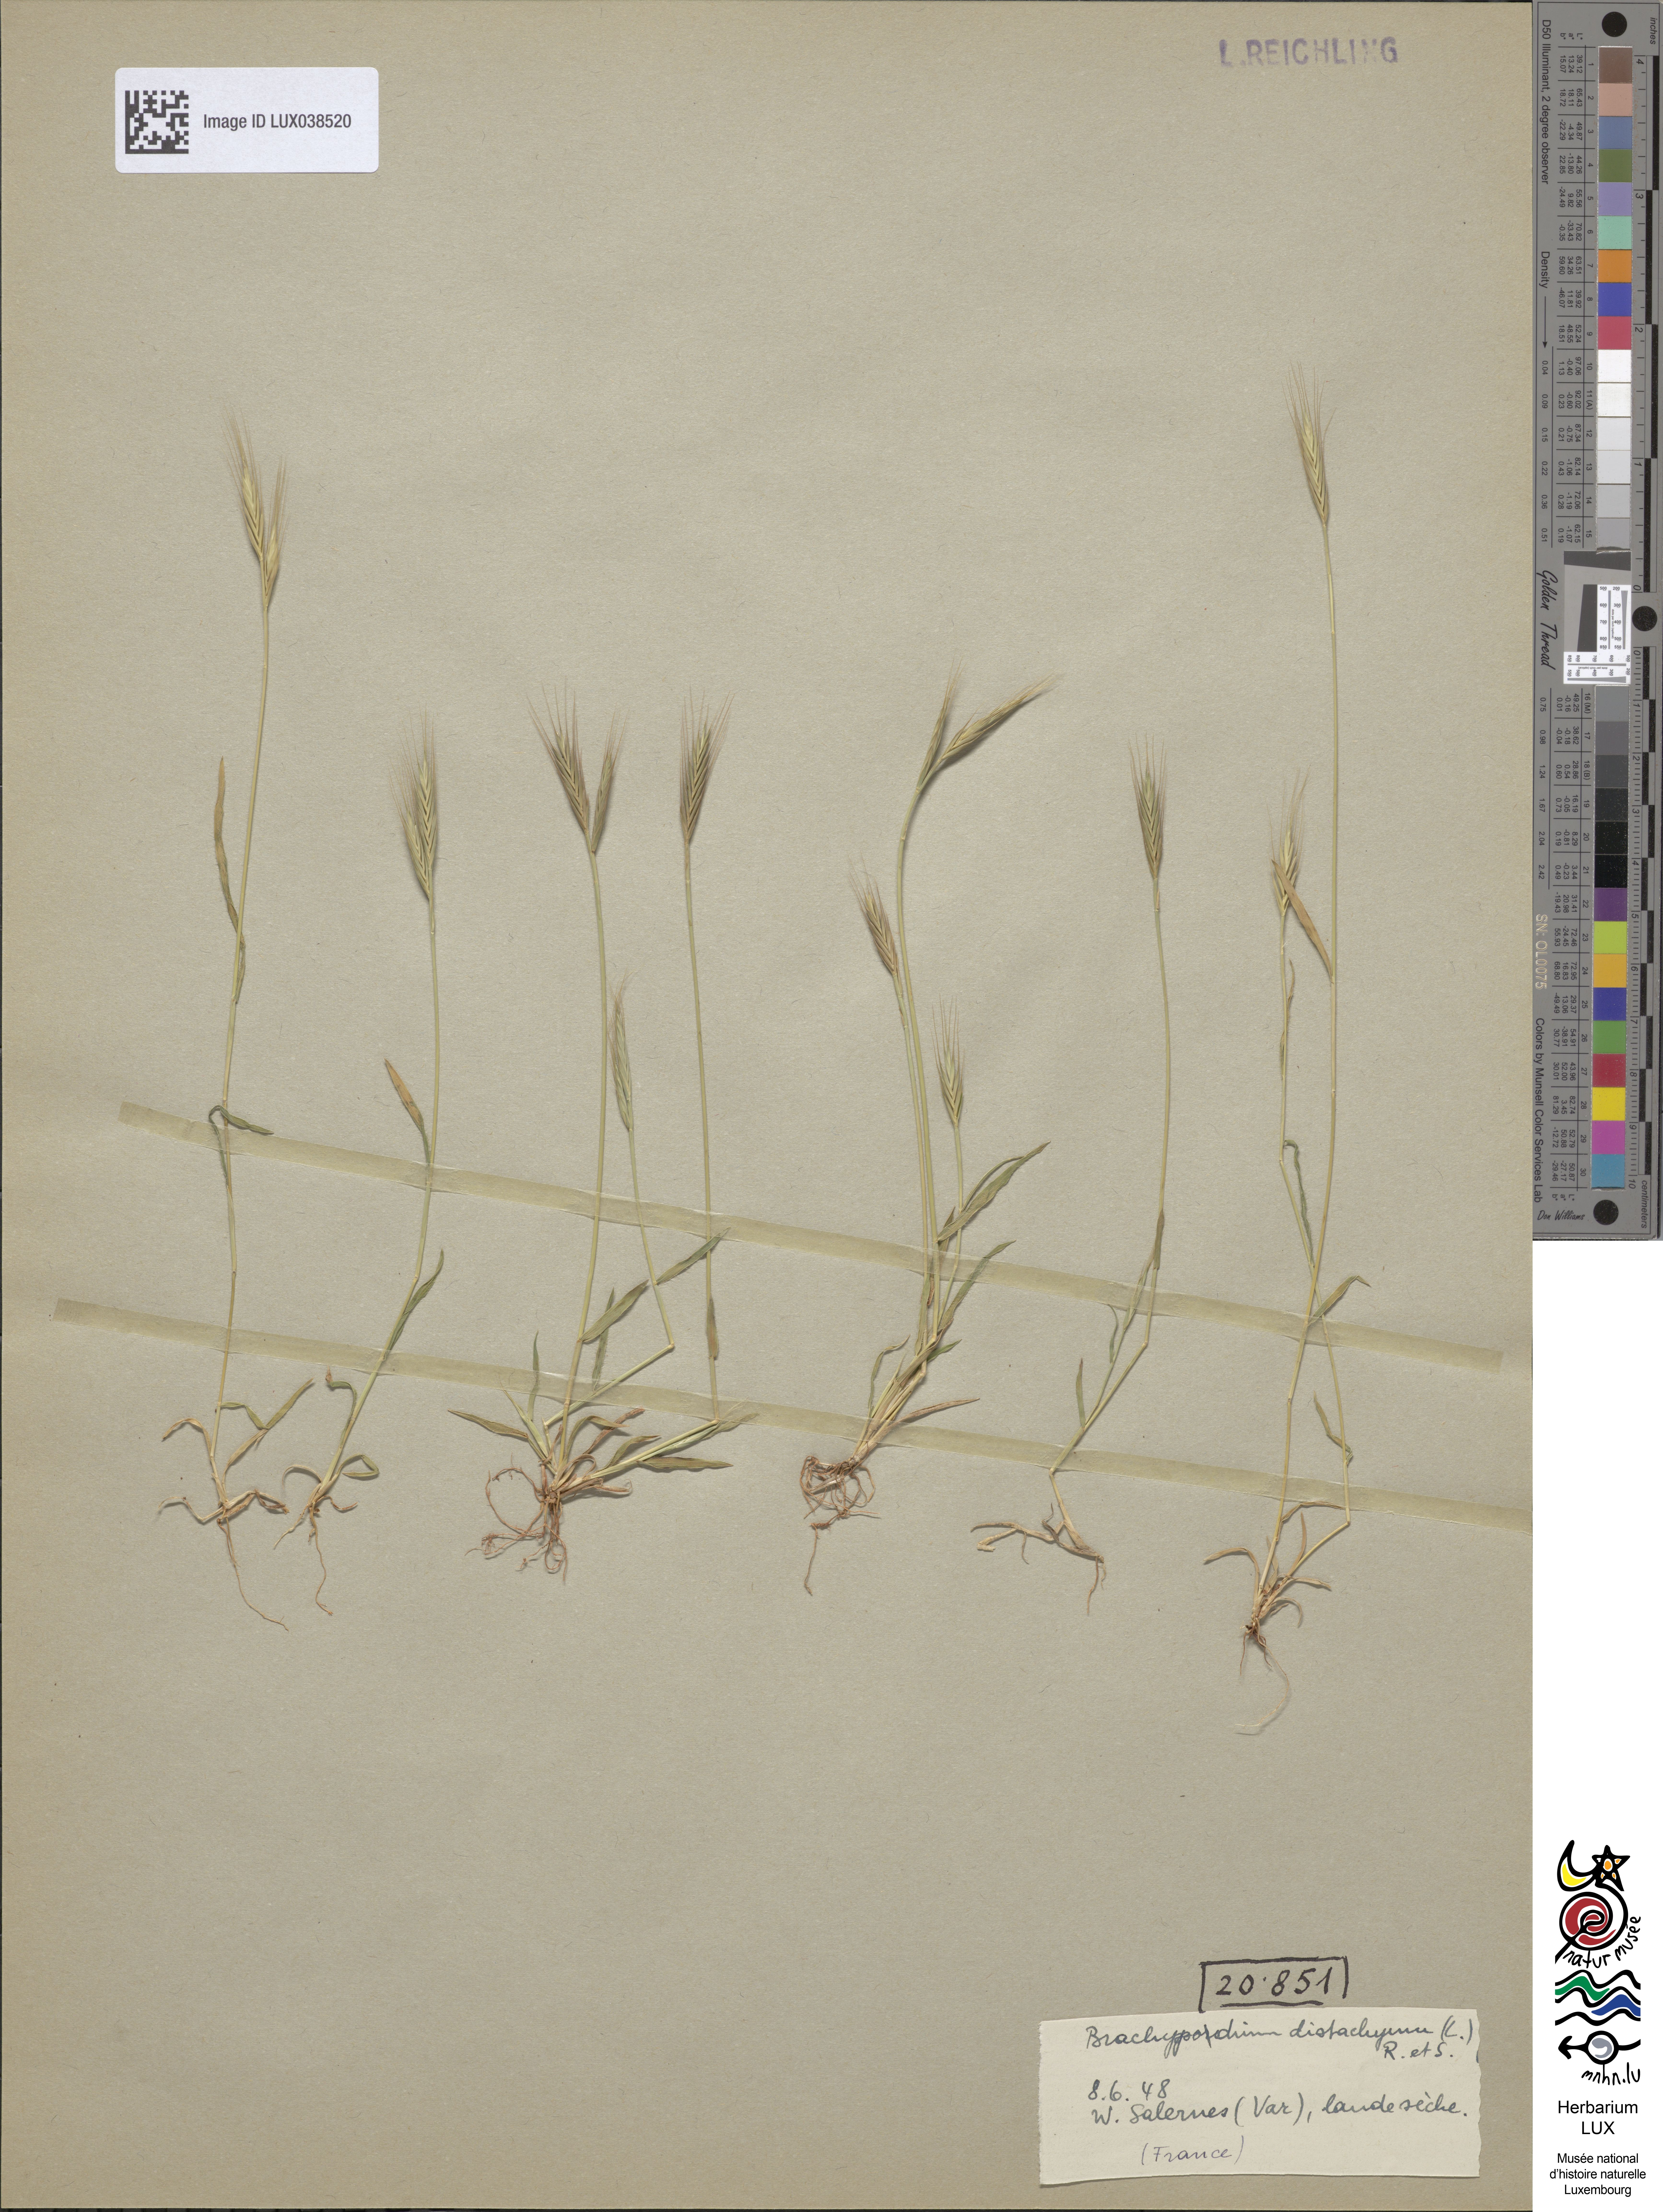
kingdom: Plantae
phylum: Tracheophyta
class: Liliopsida
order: Poales
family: Poaceae
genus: Brachypodium
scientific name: Brachypodium distachyon
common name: Stiff brome
